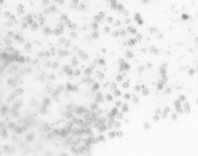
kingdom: Animalia
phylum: Chordata
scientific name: Chordata
